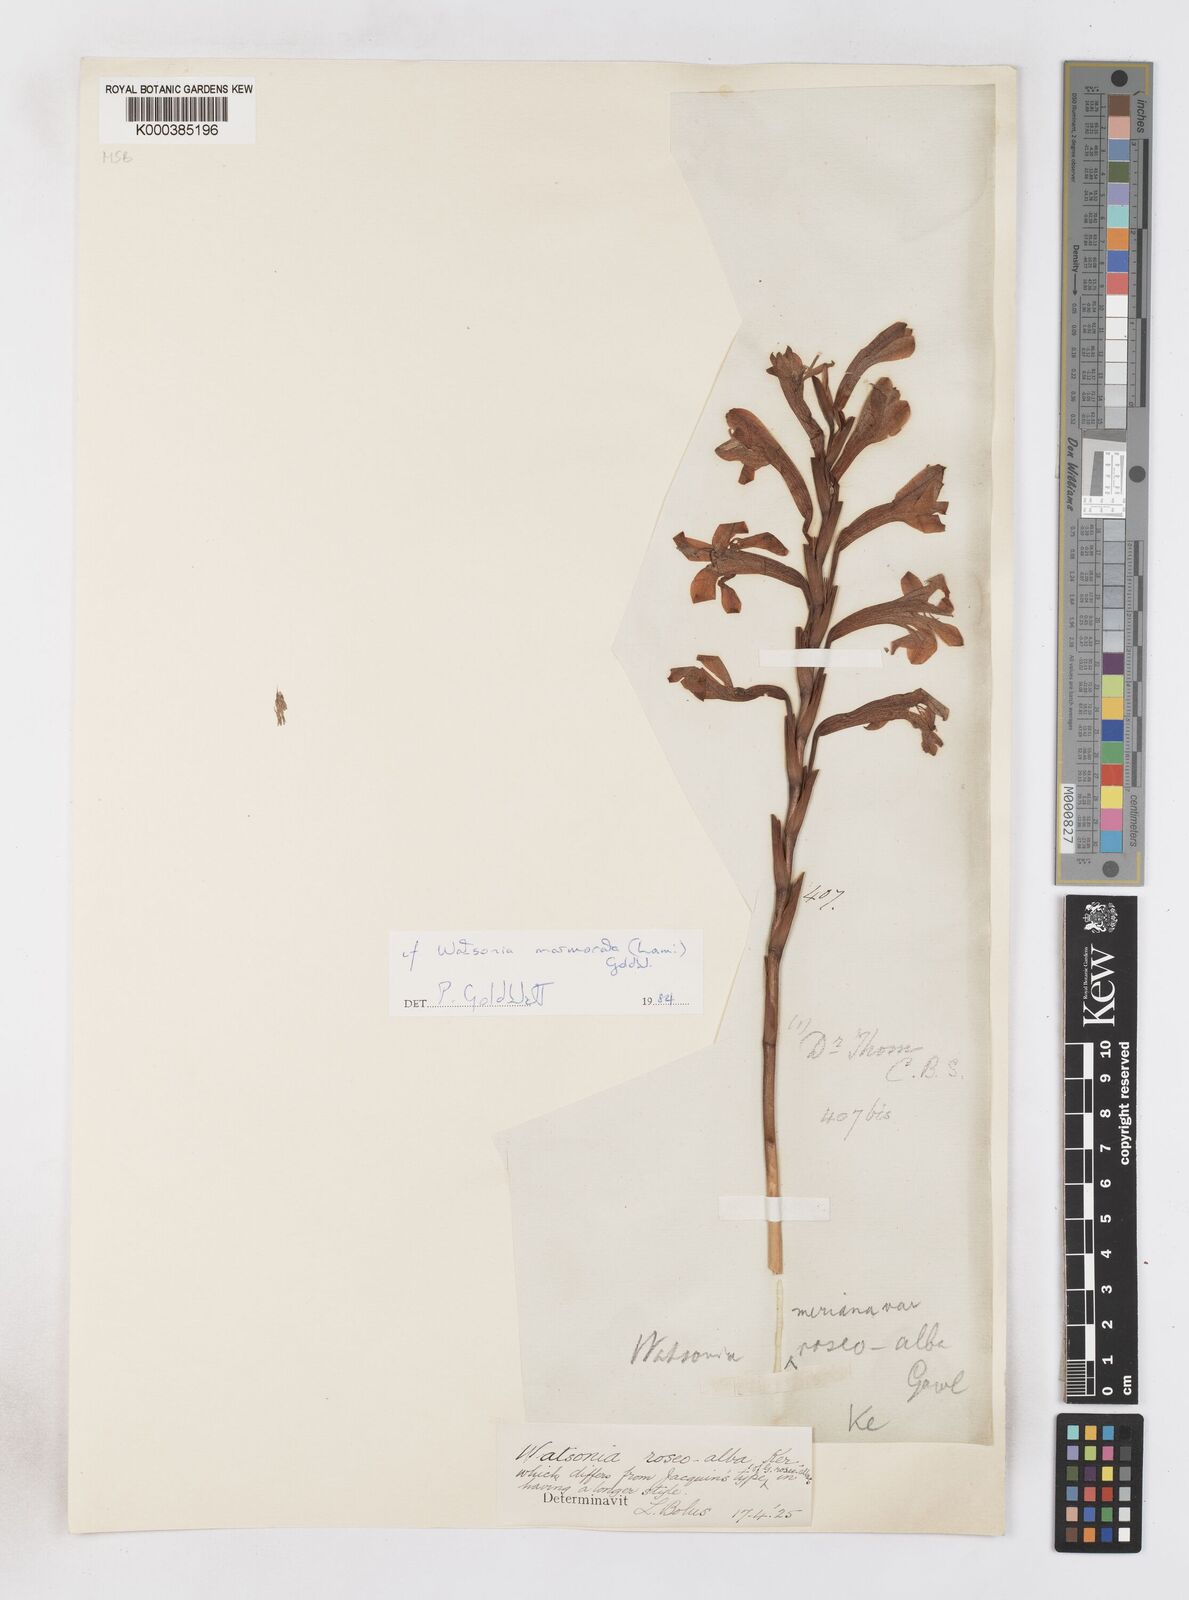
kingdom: Plantae
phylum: Tracheophyta
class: Liliopsida
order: Asparagales
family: Iridaceae
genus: Watsonia
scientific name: Watsonia humilis
